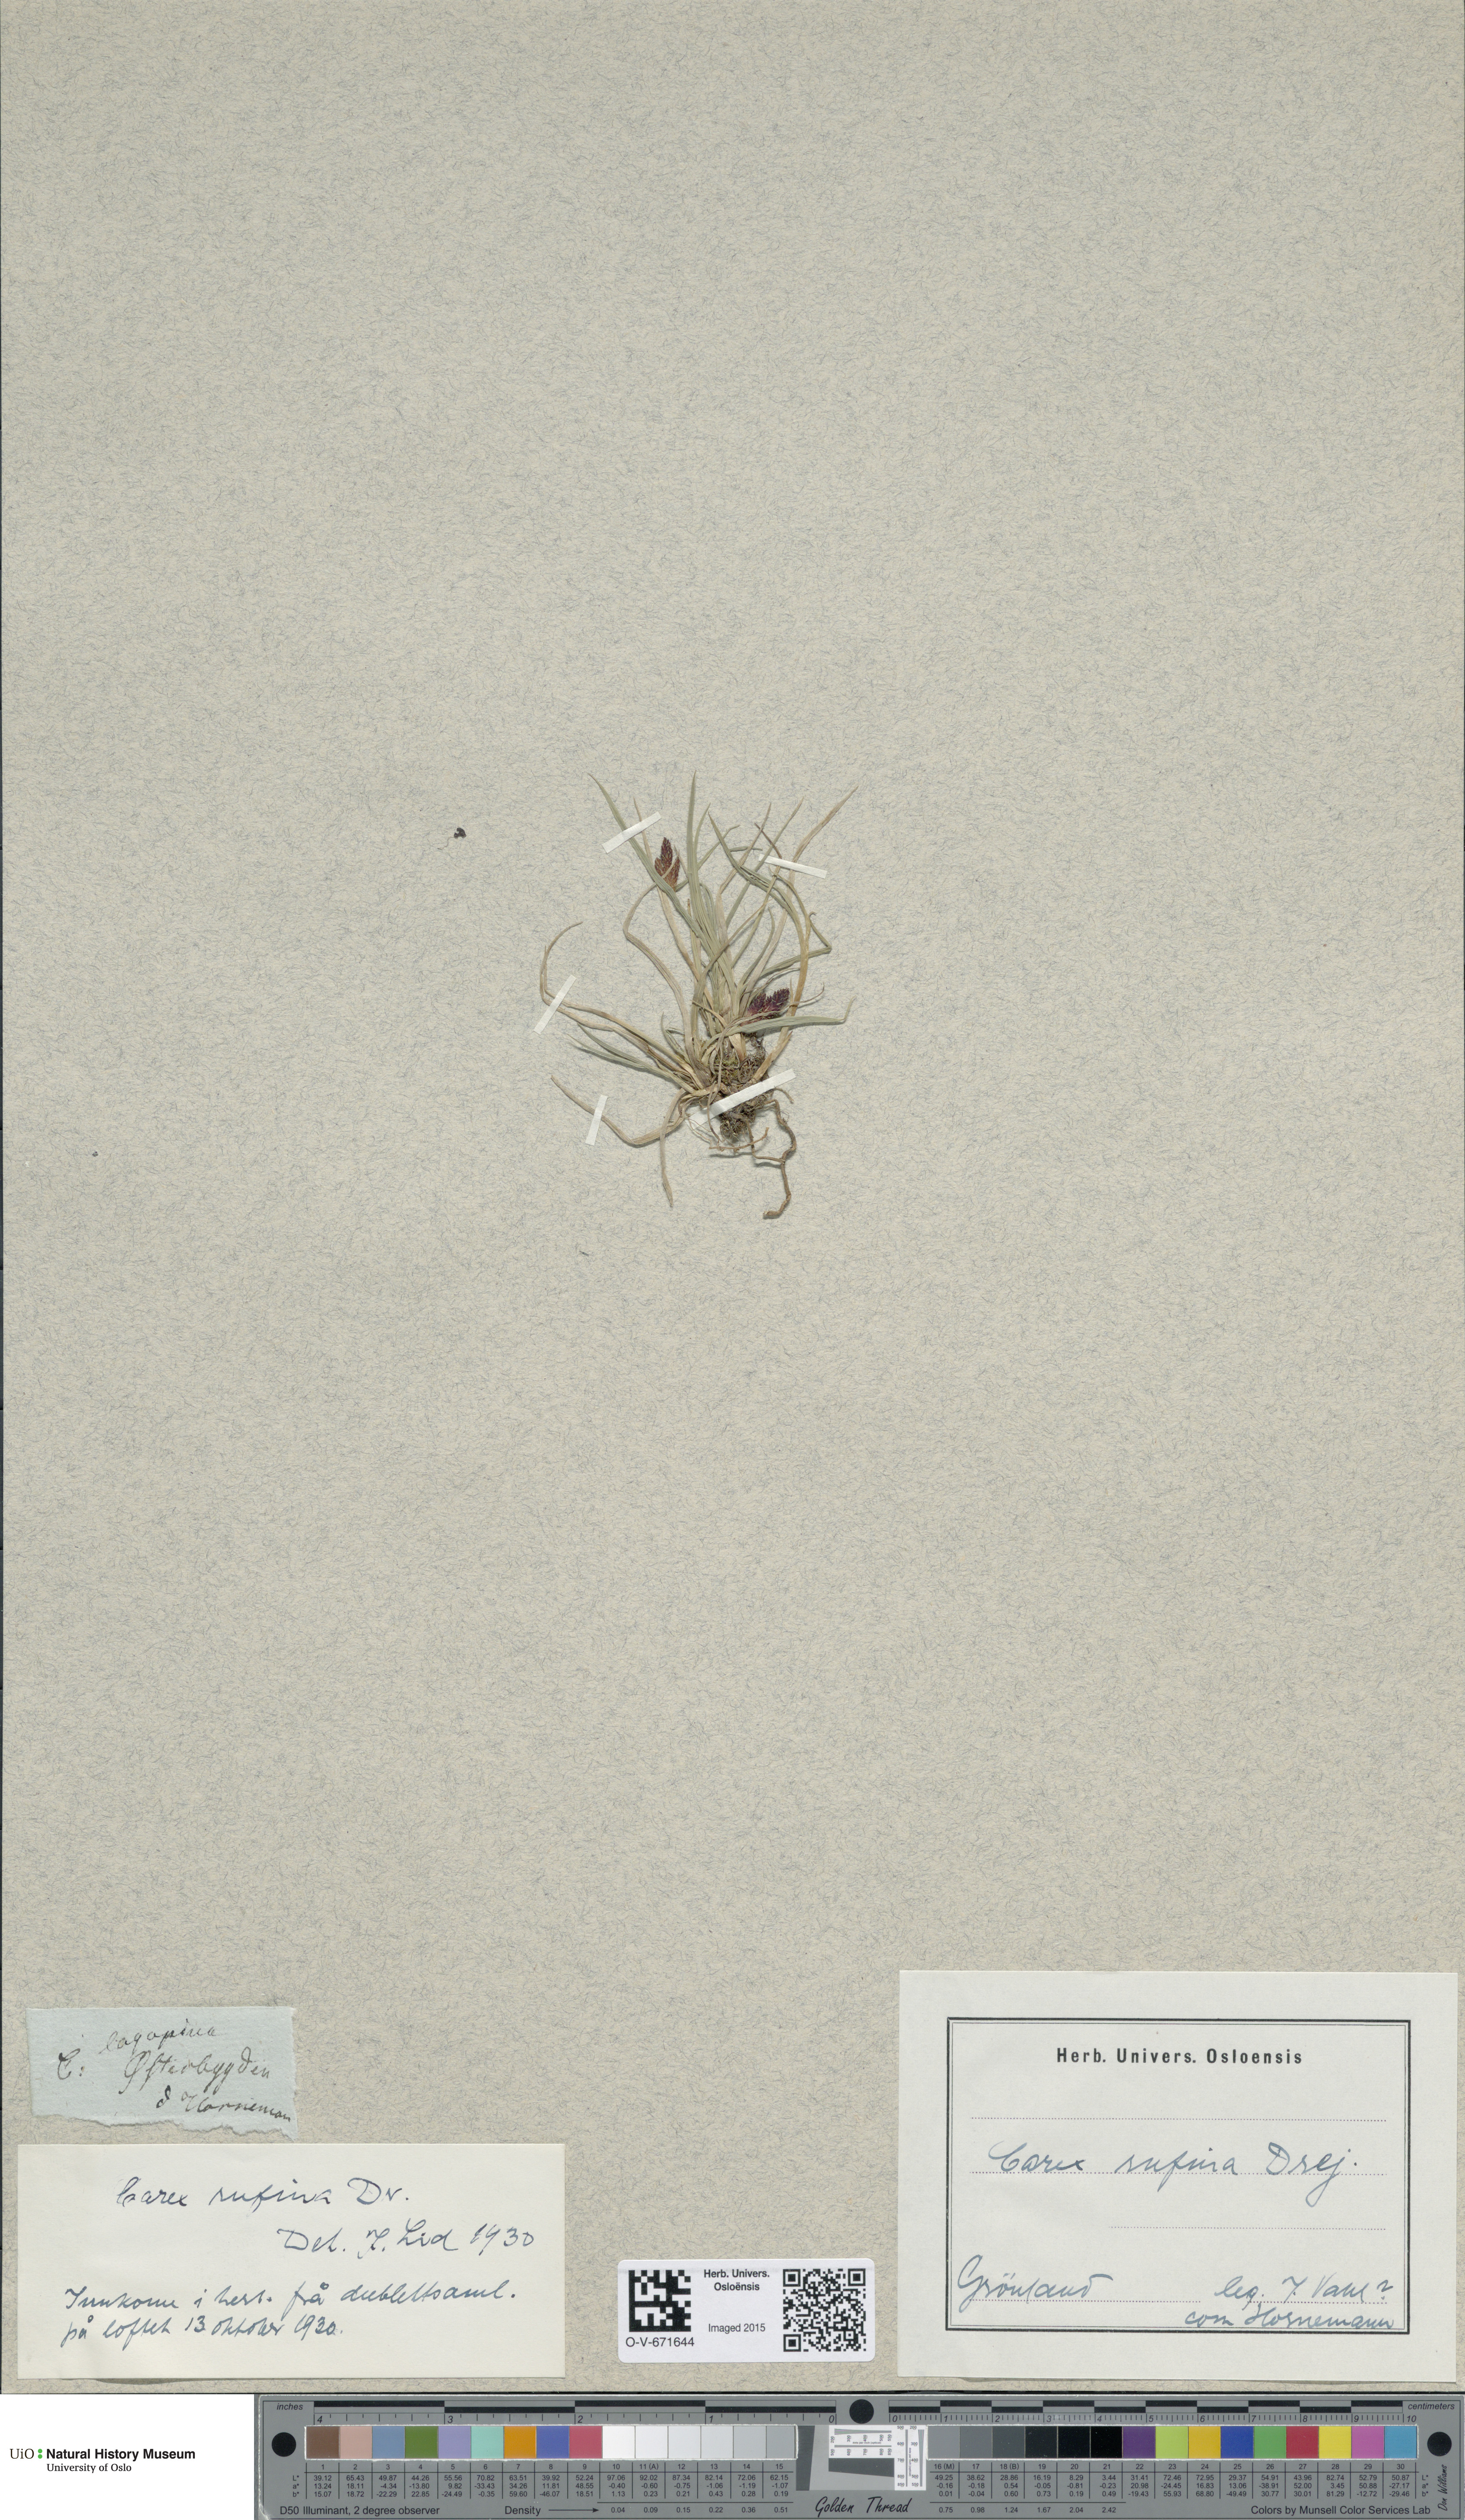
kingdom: Plantae
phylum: Tracheophyta
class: Liliopsida
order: Poales
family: Cyperaceae
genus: Carex
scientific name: Carex rufina
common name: Reddish sedge
